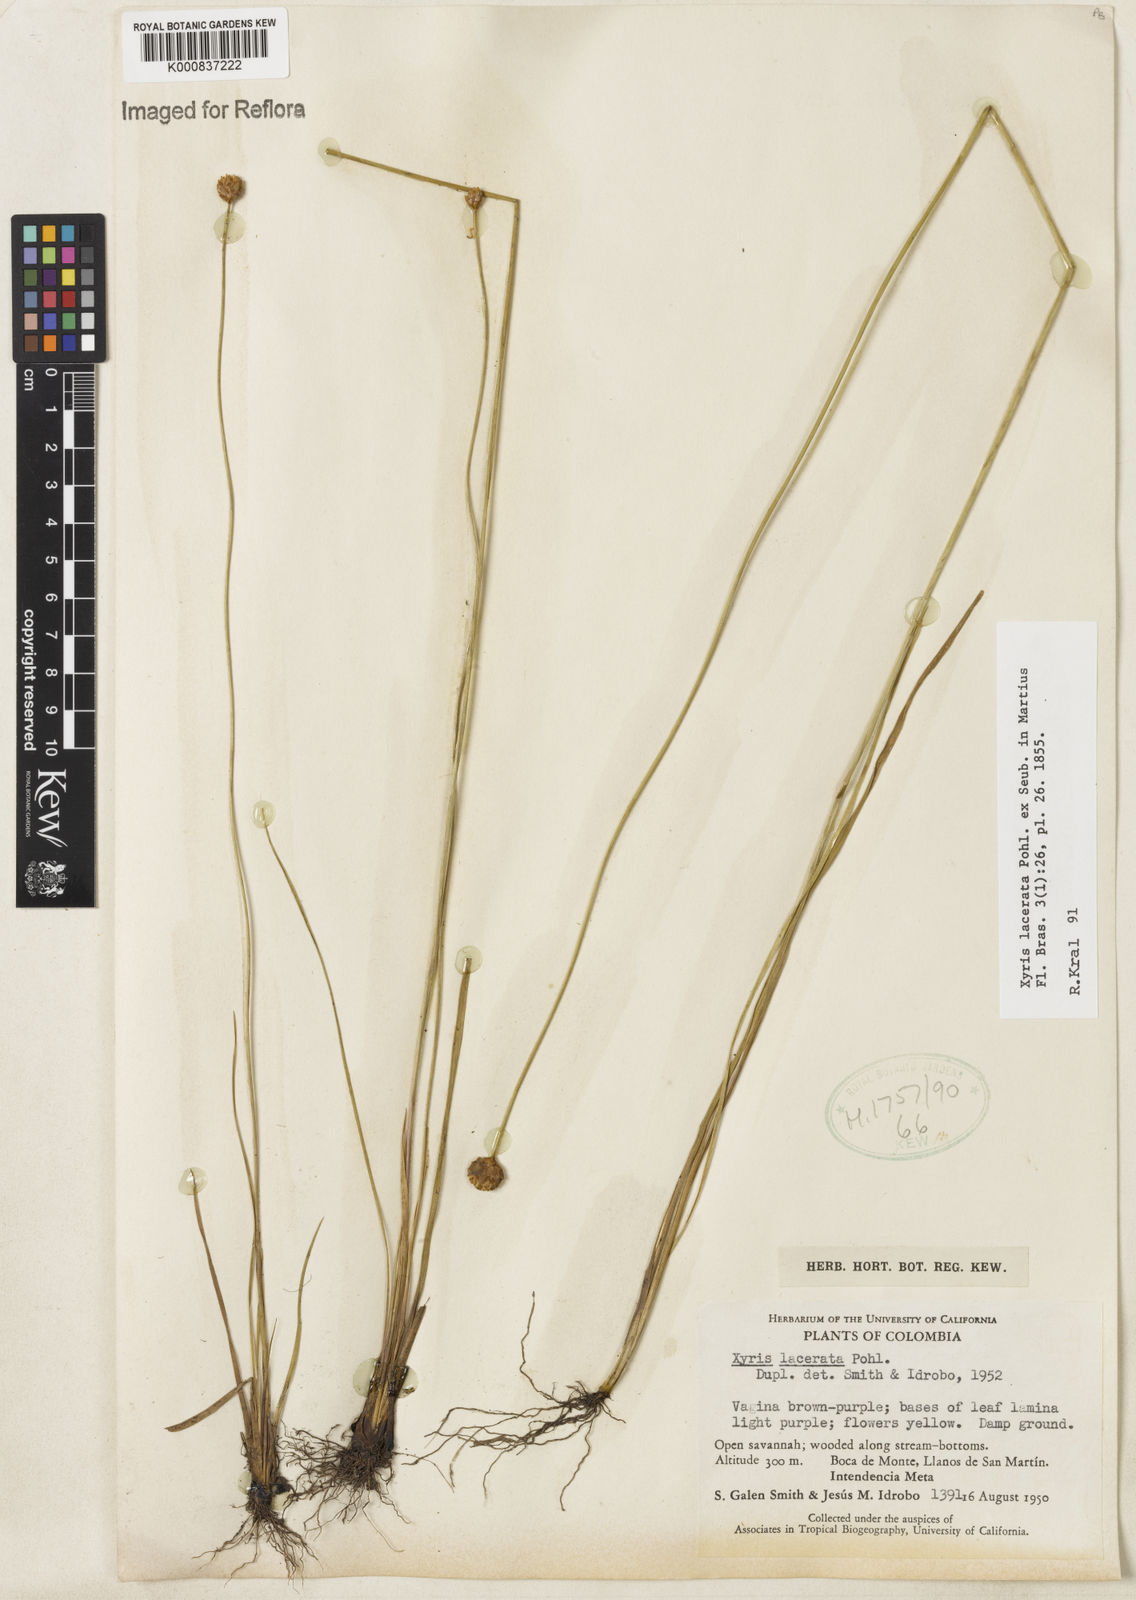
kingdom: Plantae
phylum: Tracheophyta
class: Liliopsida
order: Poales
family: Xyridaceae
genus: Xyris
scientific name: Xyris lacerata
